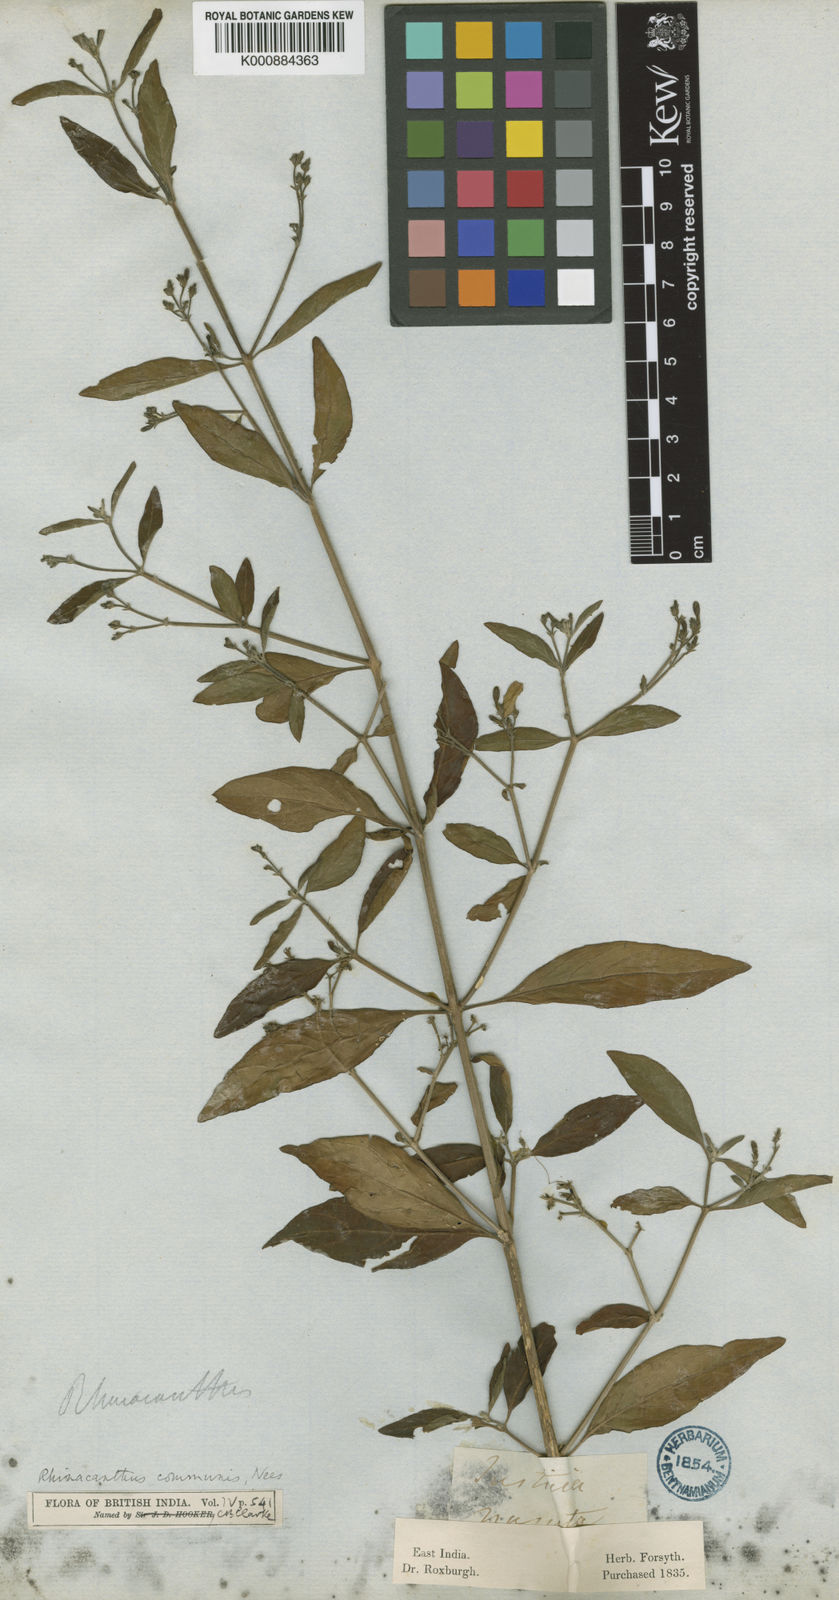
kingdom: Plantae
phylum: Tracheophyta
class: Magnoliopsida
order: Lamiales
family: Acanthaceae
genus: Rhinacanthus
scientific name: Rhinacanthus
